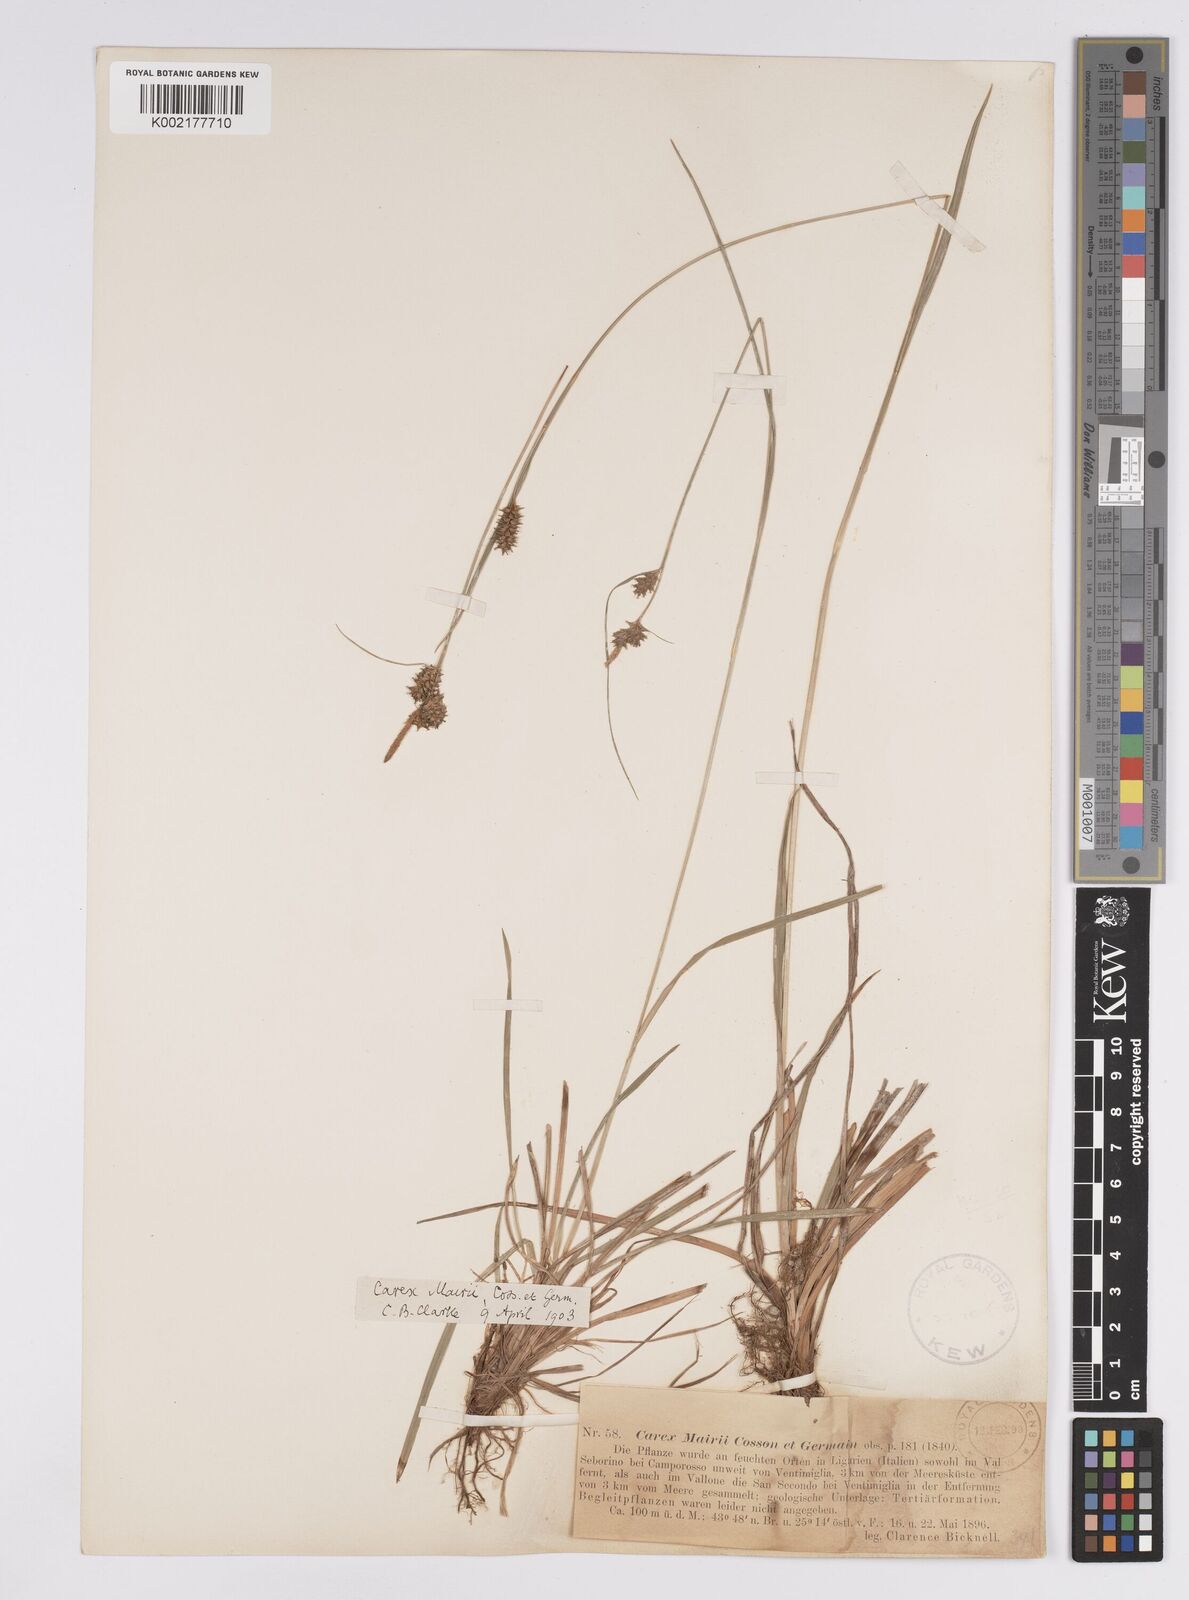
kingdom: Plantae
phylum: Tracheophyta
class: Liliopsida
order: Poales
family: Cyperaceae
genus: Carex
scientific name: Carex mairei
